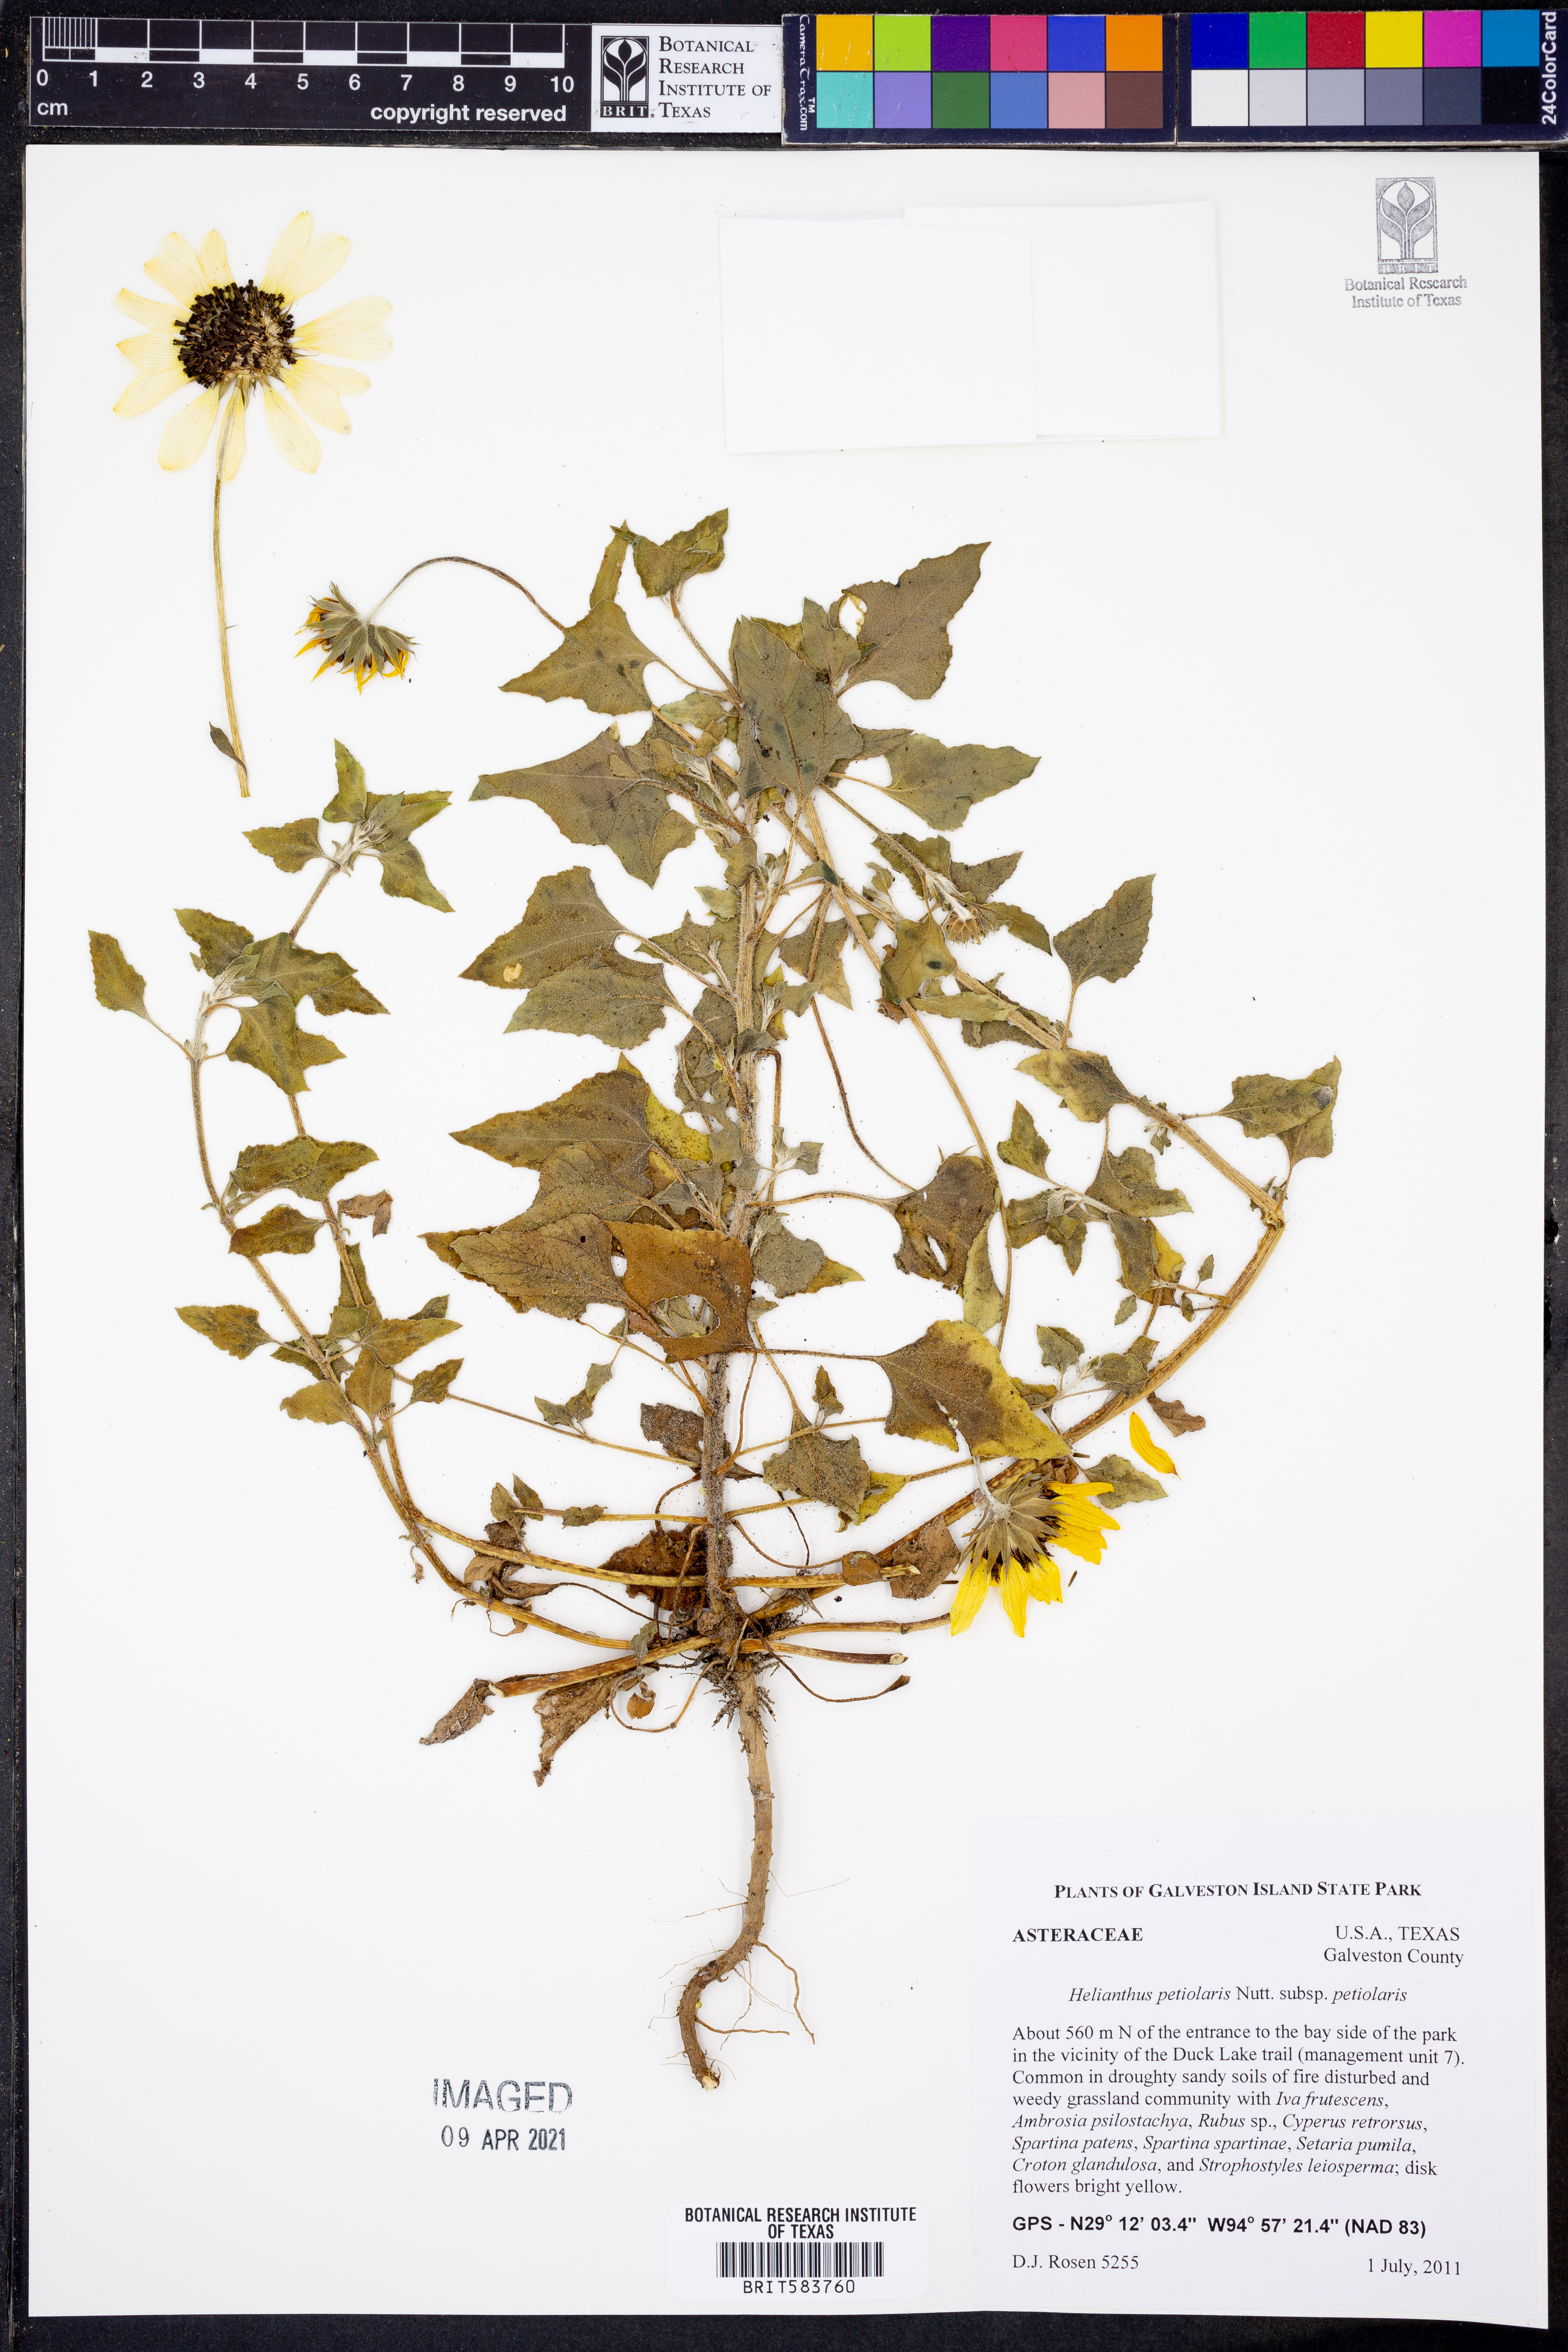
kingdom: Plantae
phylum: Tracheophyta
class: Magnoliopsida
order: Asterales
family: Asteraceae
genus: Helianthus
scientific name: Helianthus petiolaris
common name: Lesser sunflower
